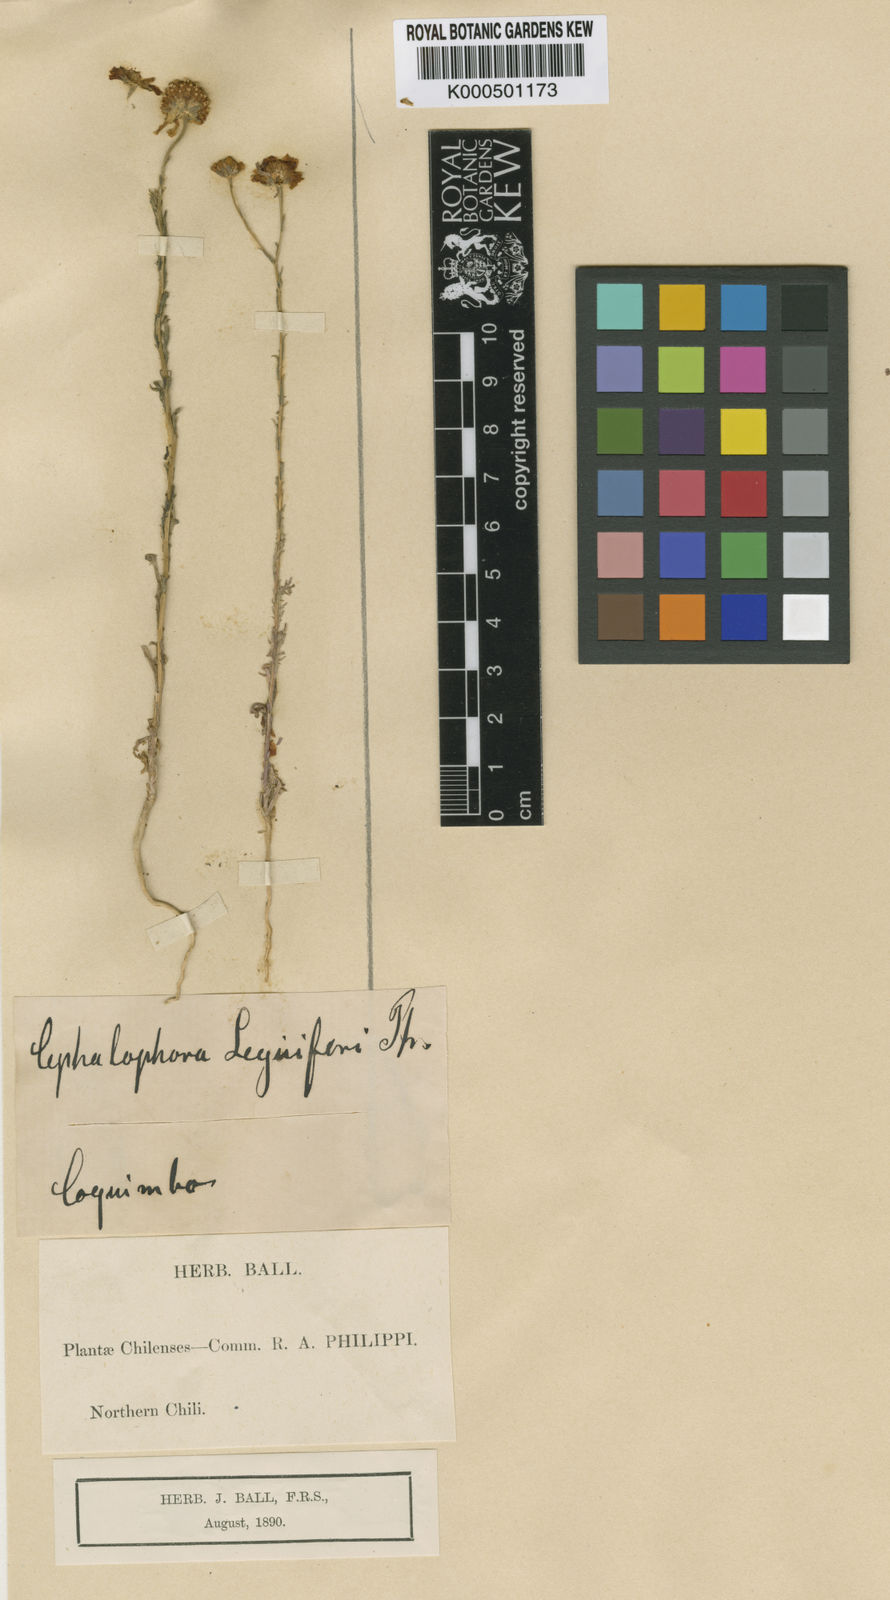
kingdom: Plantae
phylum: Tracheophyta
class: Magnoliopsida
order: Asterales
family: Asteraceae
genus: Helenium
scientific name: Helenium urmenetae
